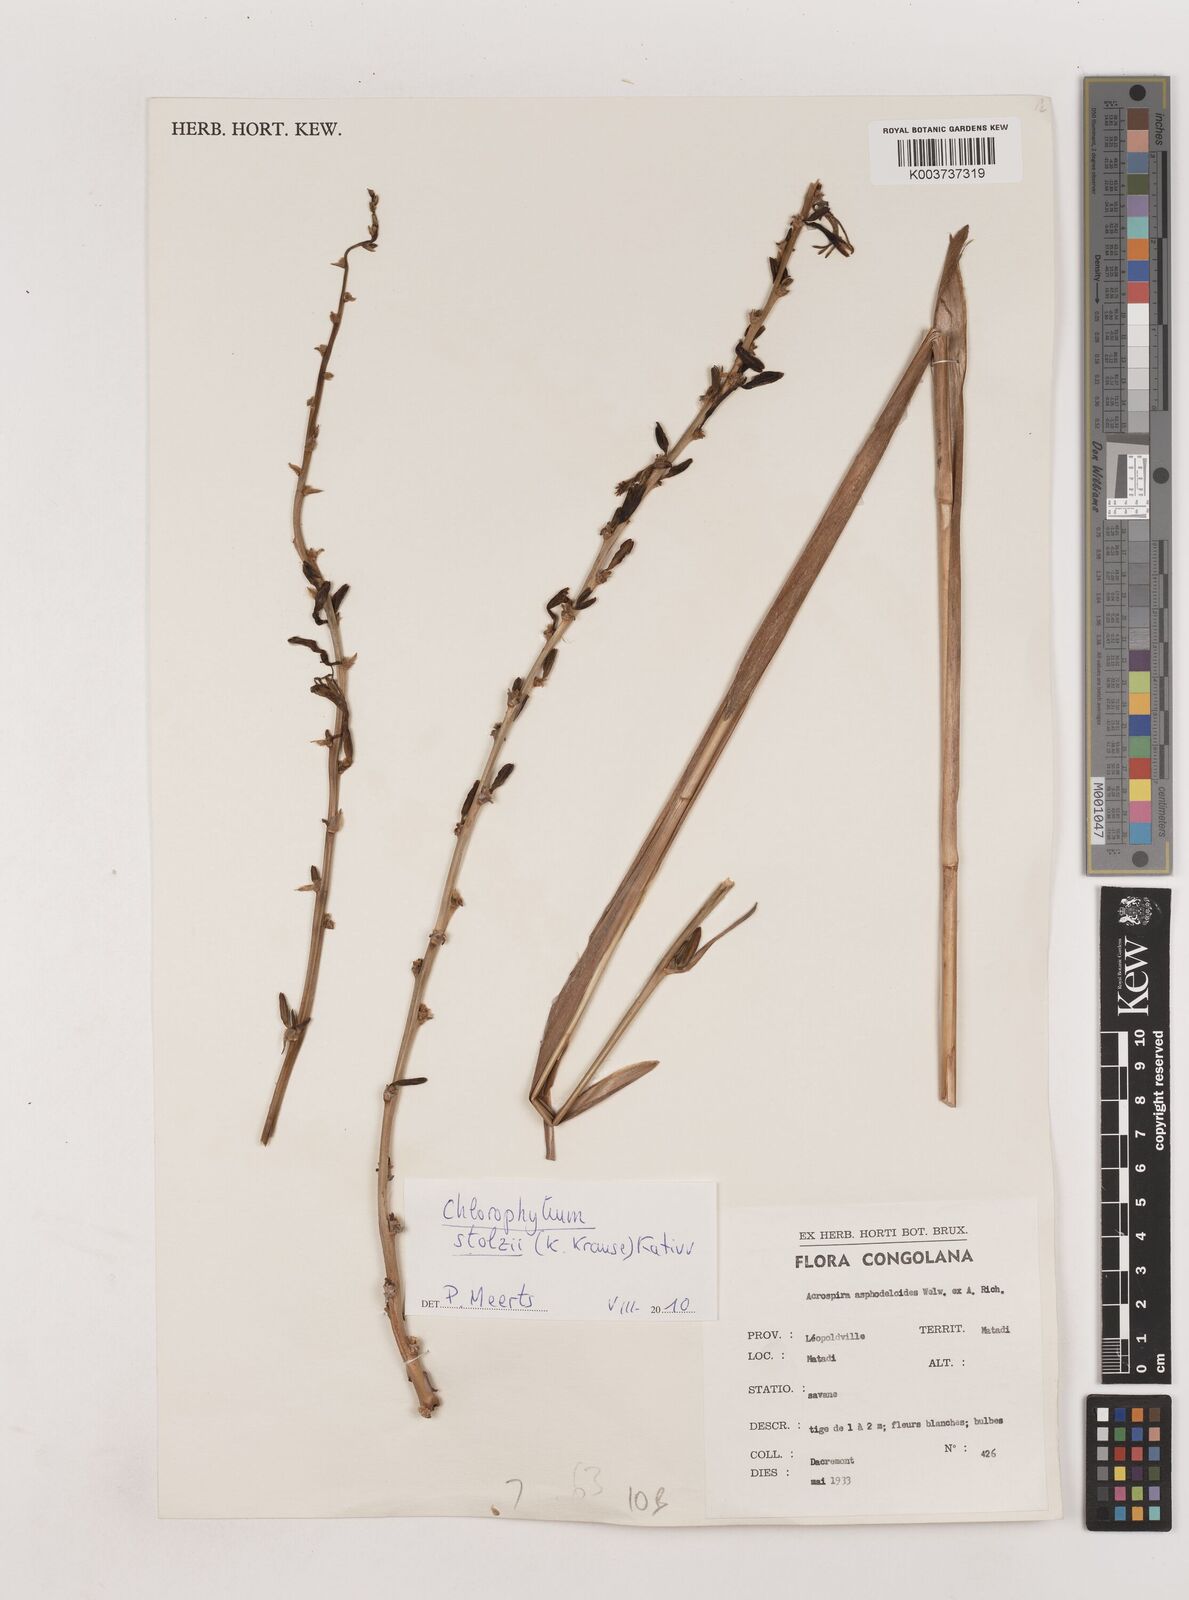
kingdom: Plantae
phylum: Tracheophyta
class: Liliopsida
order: Asparagales
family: Asparagaceae
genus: Chlorophytum
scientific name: Chlorophytum stolzii
